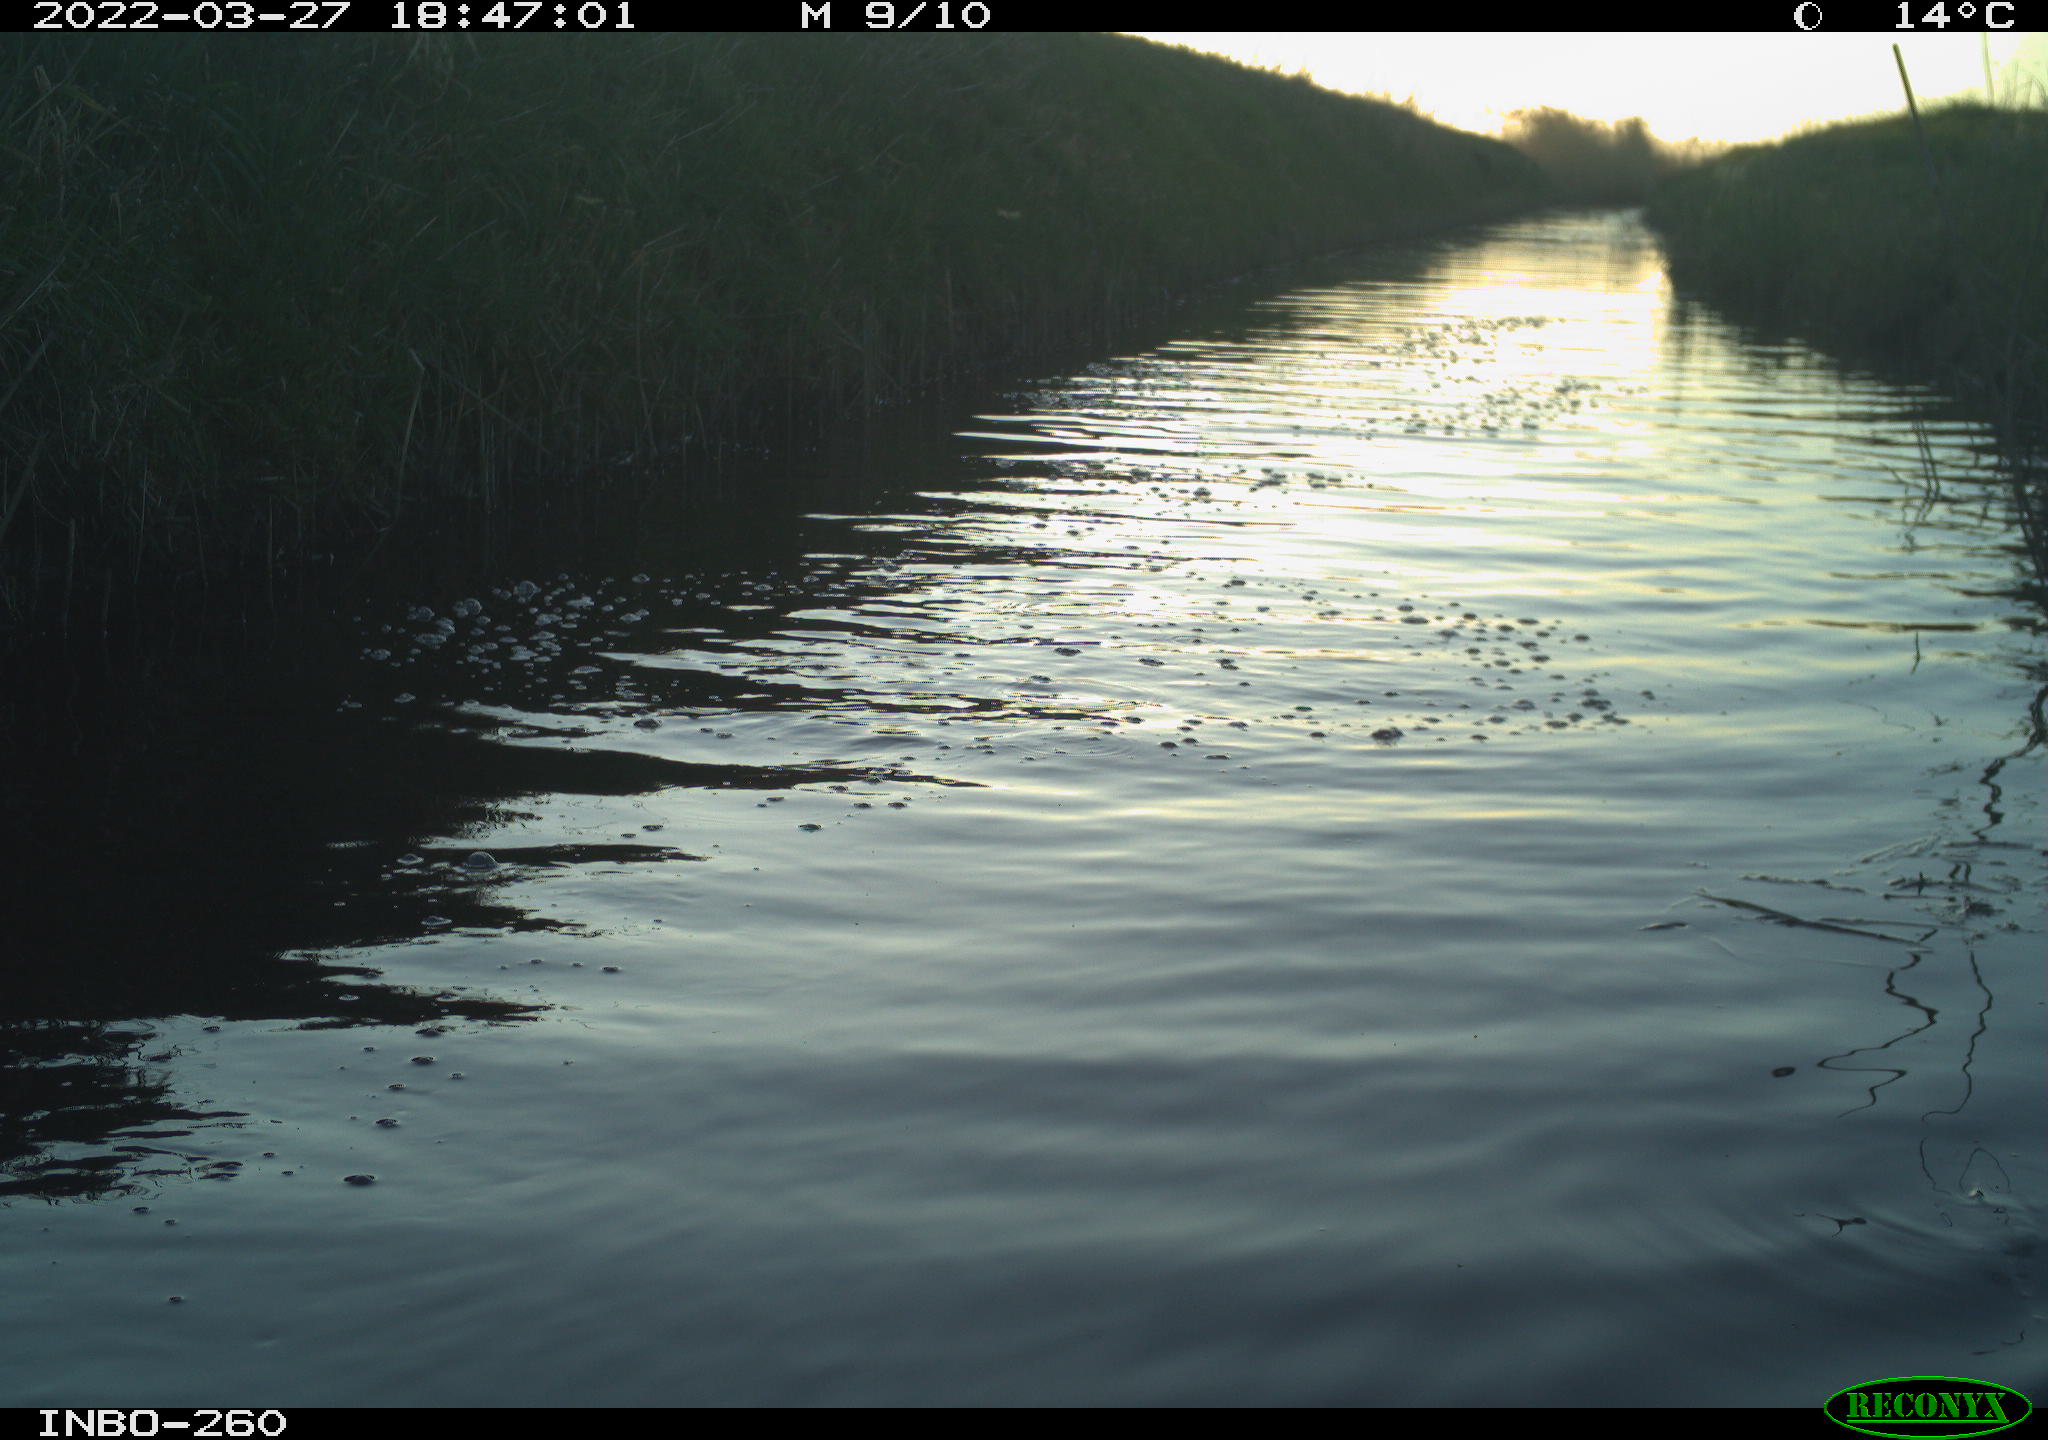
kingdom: Animalia
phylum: Chordata
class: Aves
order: Gruiformes
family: Rallidae
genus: Fulica
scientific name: Fulica atra
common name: Eurasian coot
